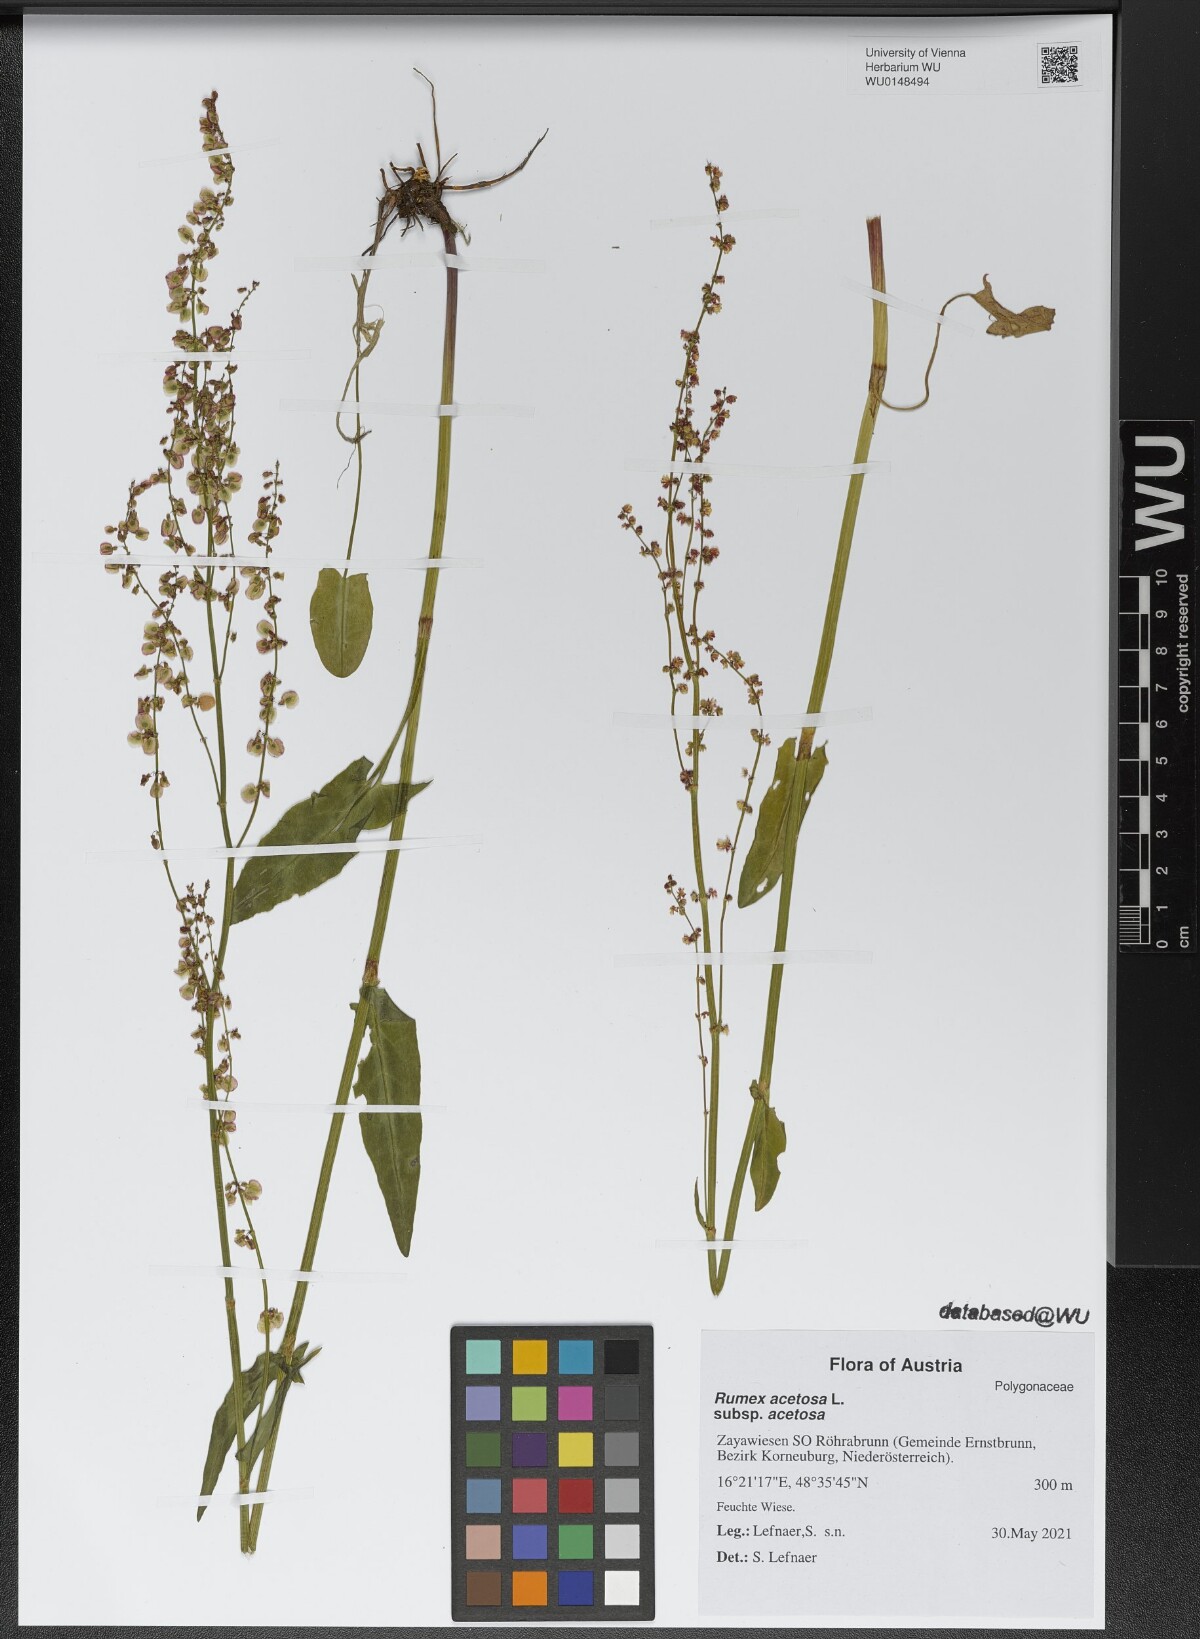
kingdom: Plantae
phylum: Tracheophyta
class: Magnoliopsida
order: Caryophyllales
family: Polygonaceae
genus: Rumex
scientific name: Rumex acetosa
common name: Garden sorrel
